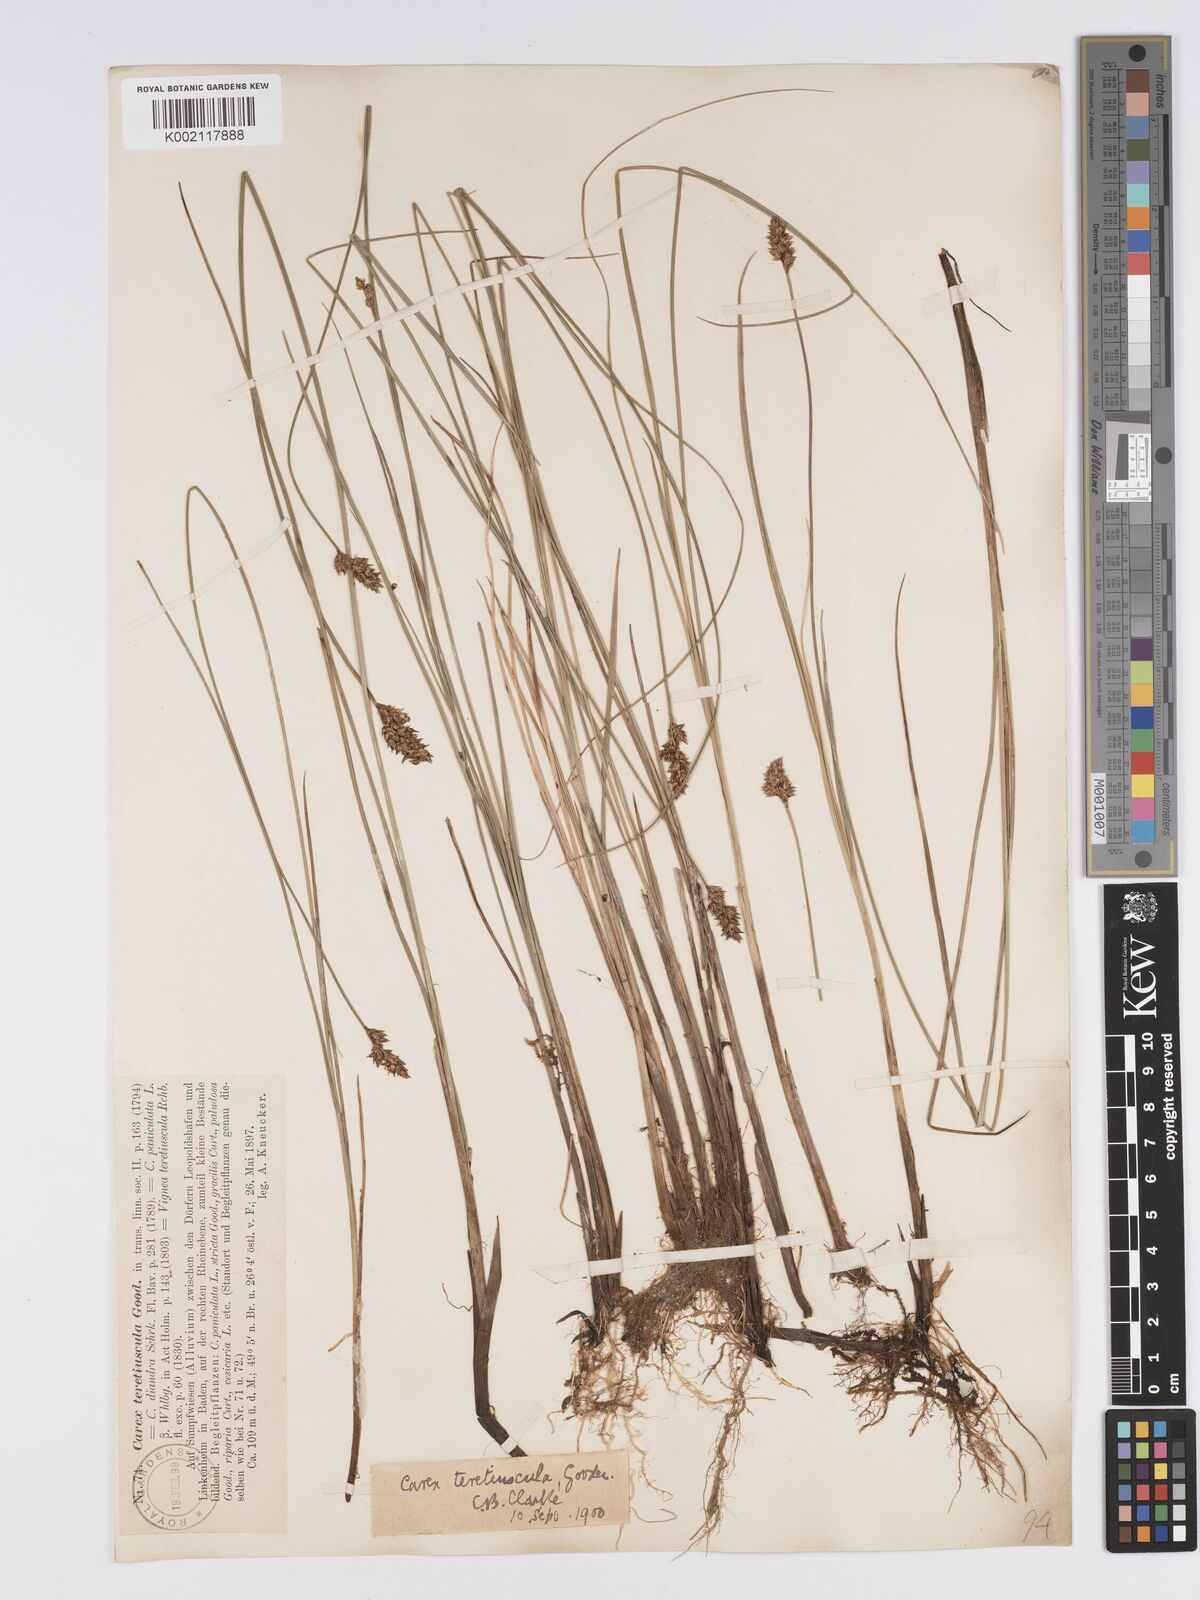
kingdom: Plantae
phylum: Tracheophyta
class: Liliopsida
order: Poales
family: Cyperaceae
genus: Carex
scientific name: Carex diandra
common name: Lesser tussock-sedge
